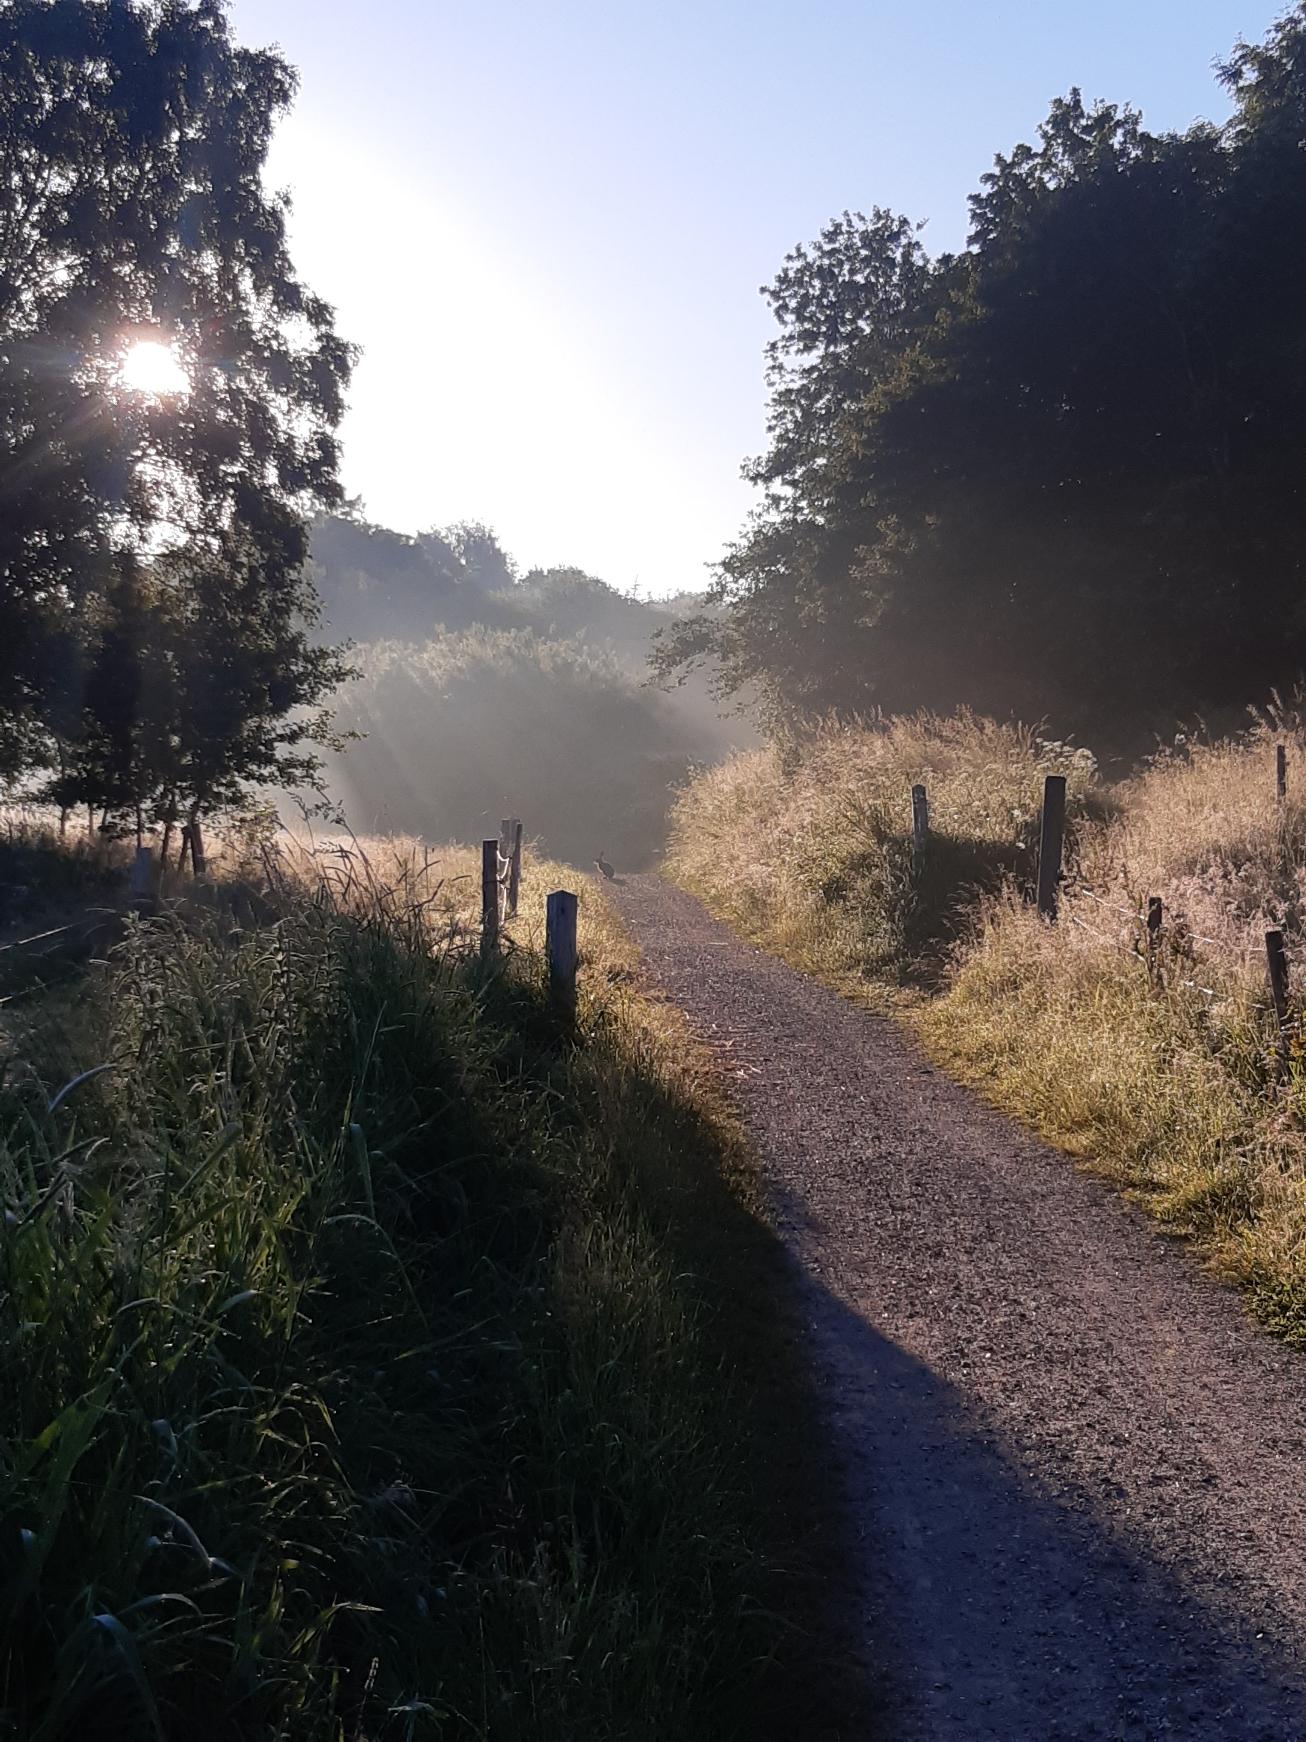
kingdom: Animalia
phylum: Chordata
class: Mammalia
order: Lagomorpha
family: Leporidae
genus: Lepus
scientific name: Lepus europaeus
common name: Hare
